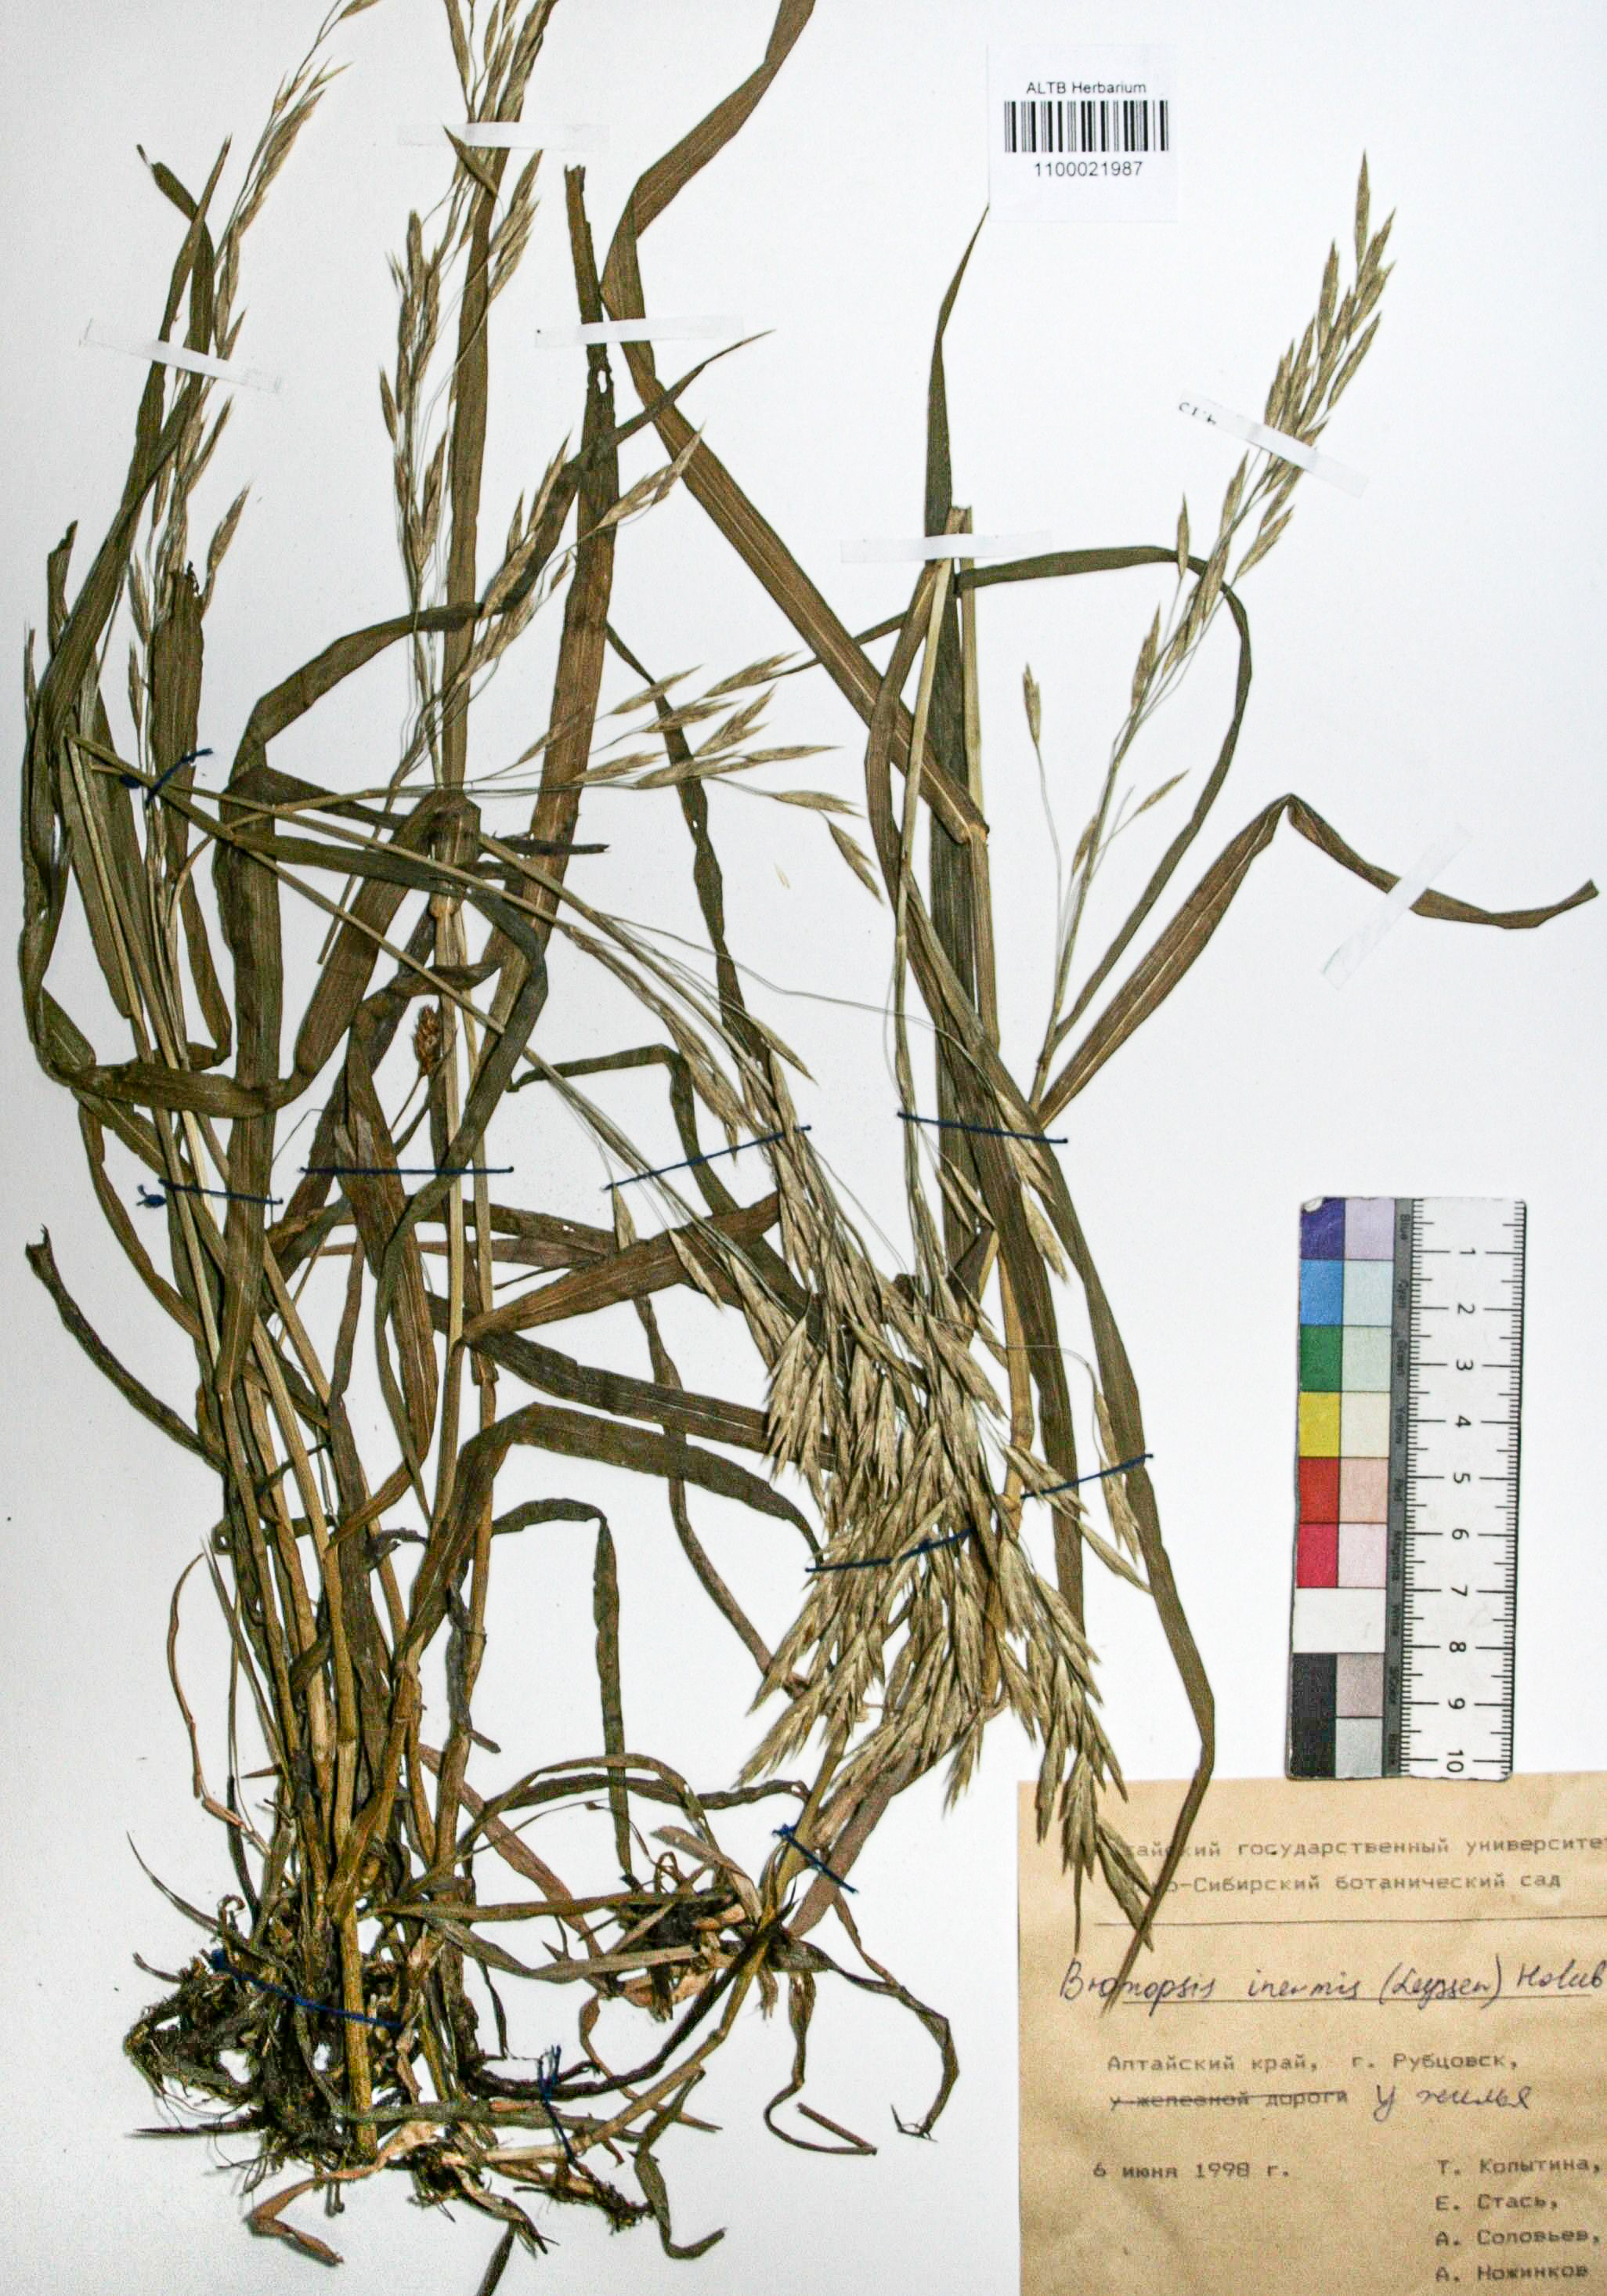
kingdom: Plantae
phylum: Tracheophyta
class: Liliopsida
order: Poales
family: Poaceae
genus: Bromus
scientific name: Bromus inermis
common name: Smooth brome
